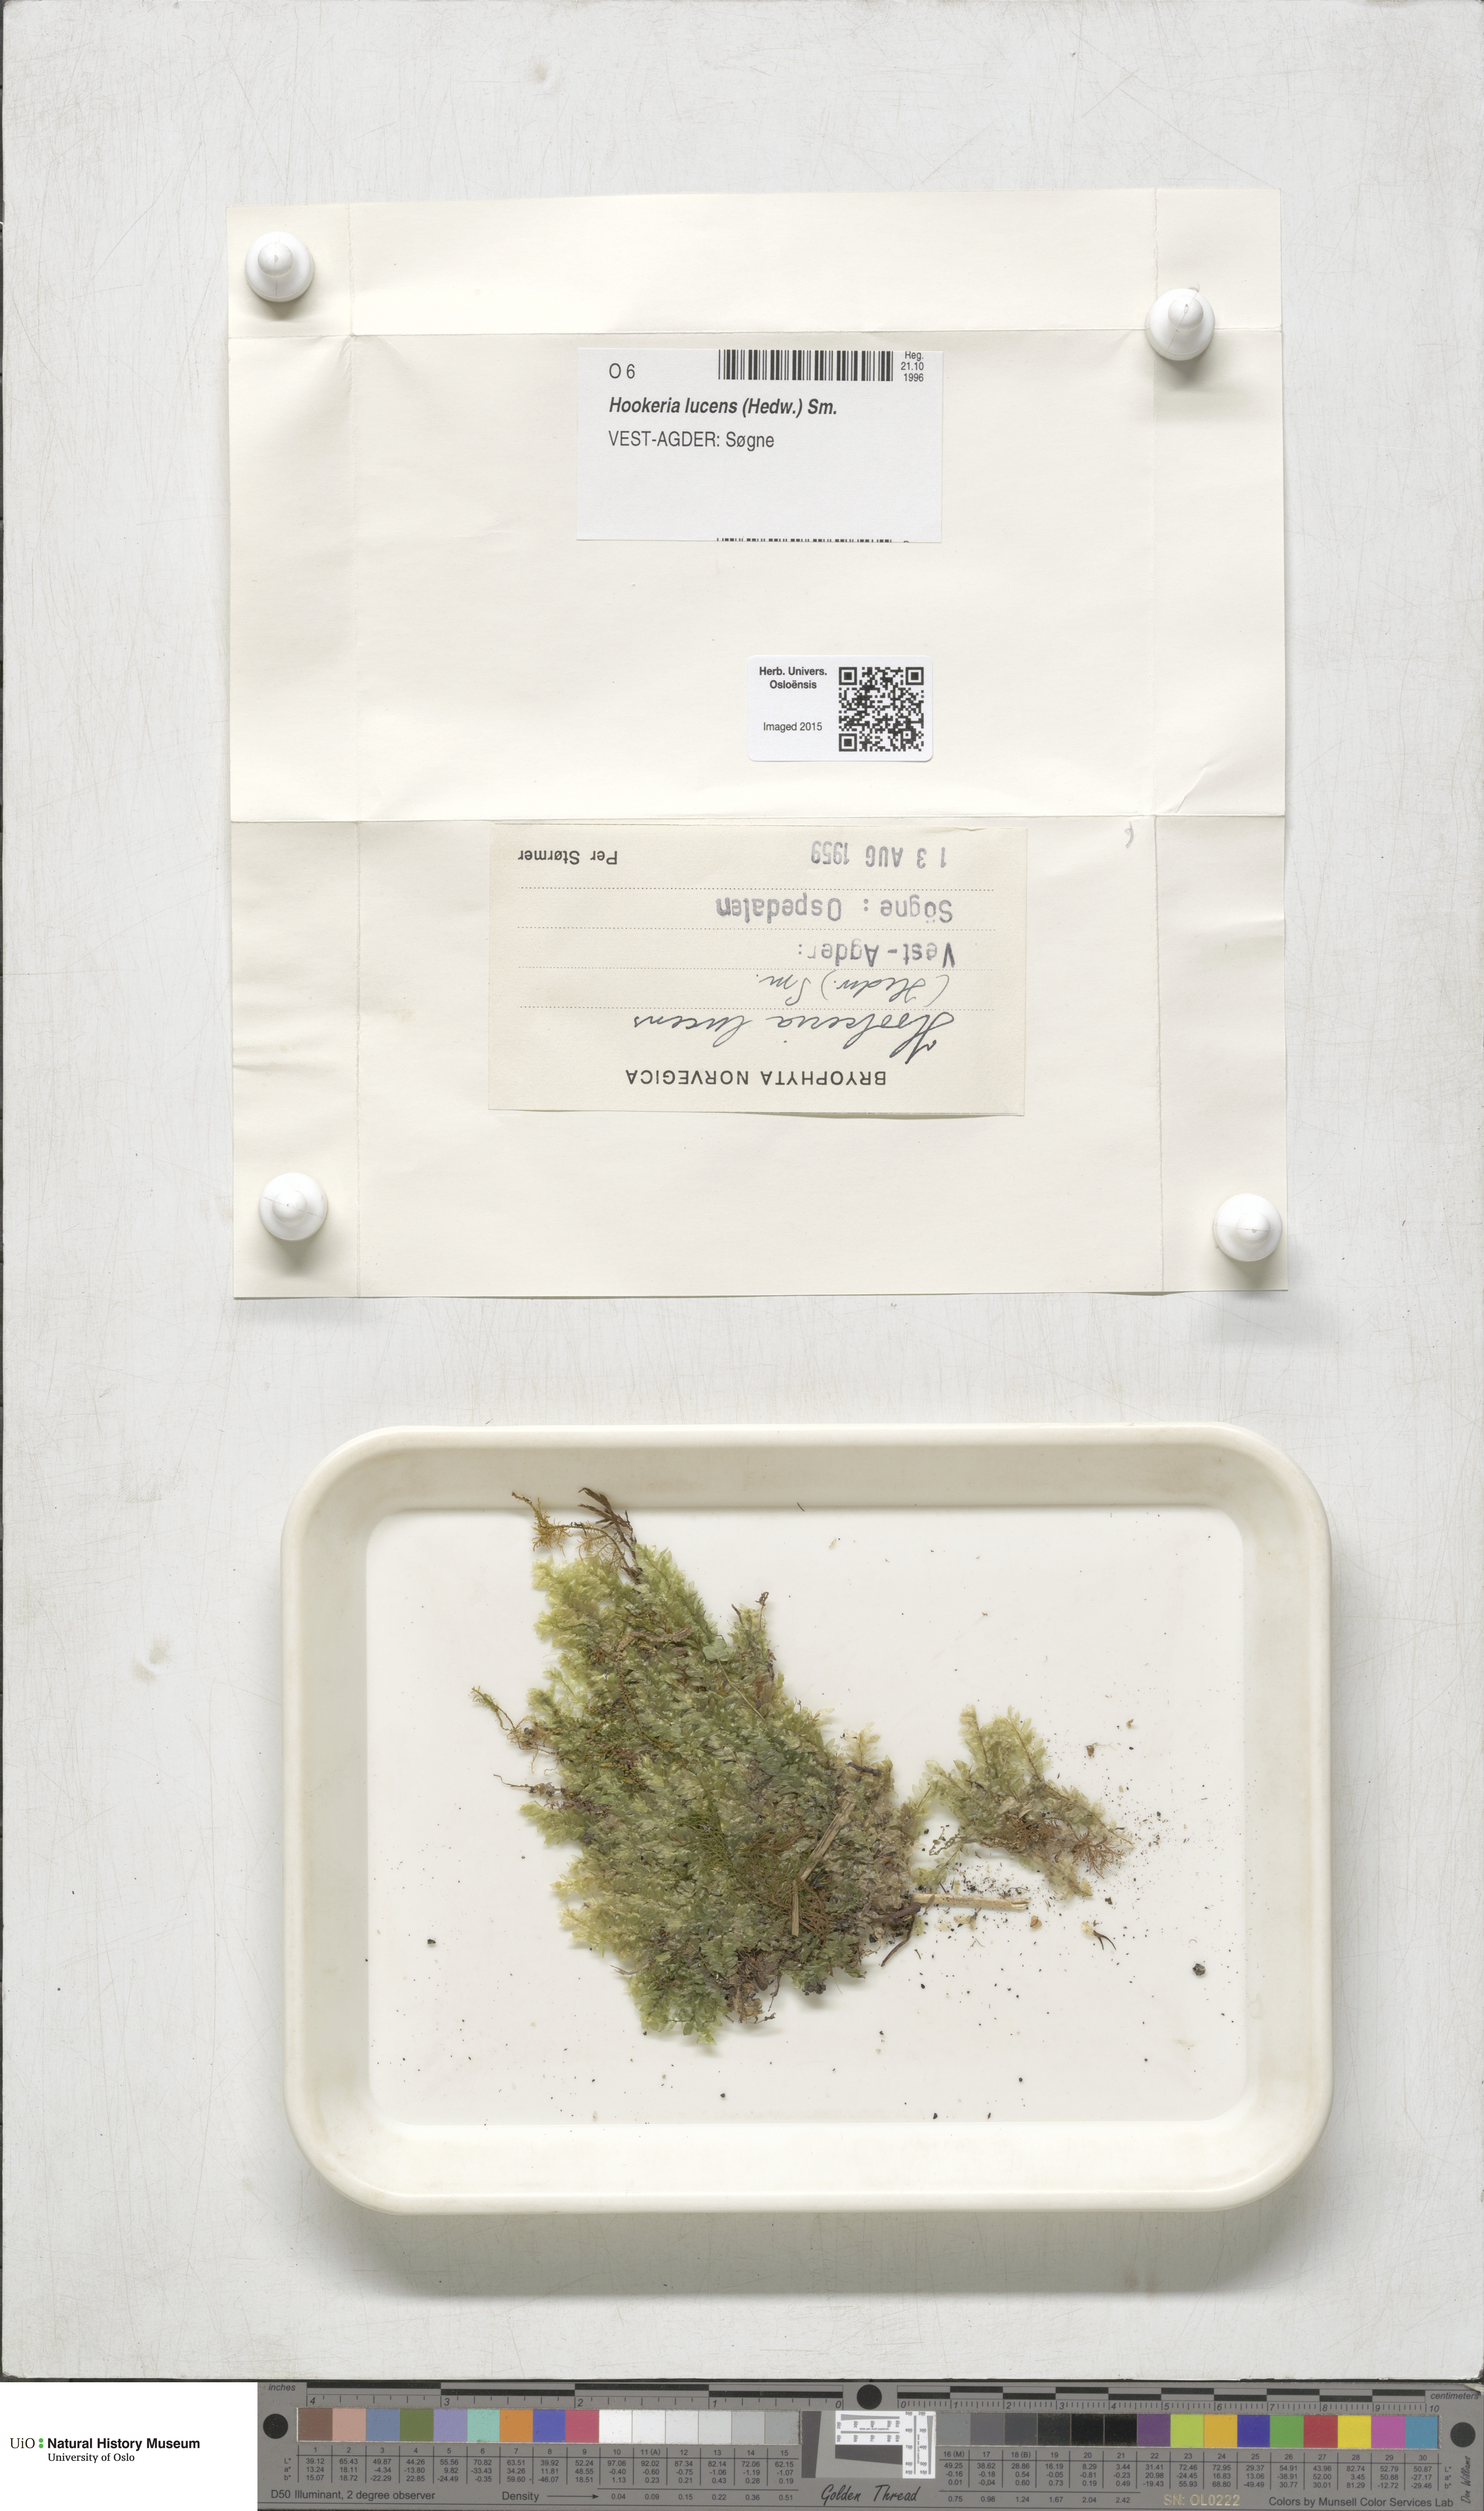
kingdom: Plantae
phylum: Bryophyta
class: Bryopsida
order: Hookeriales
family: Hookeriaceae
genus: Hookeria
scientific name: Hookeria lucens
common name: Shining hookeria
